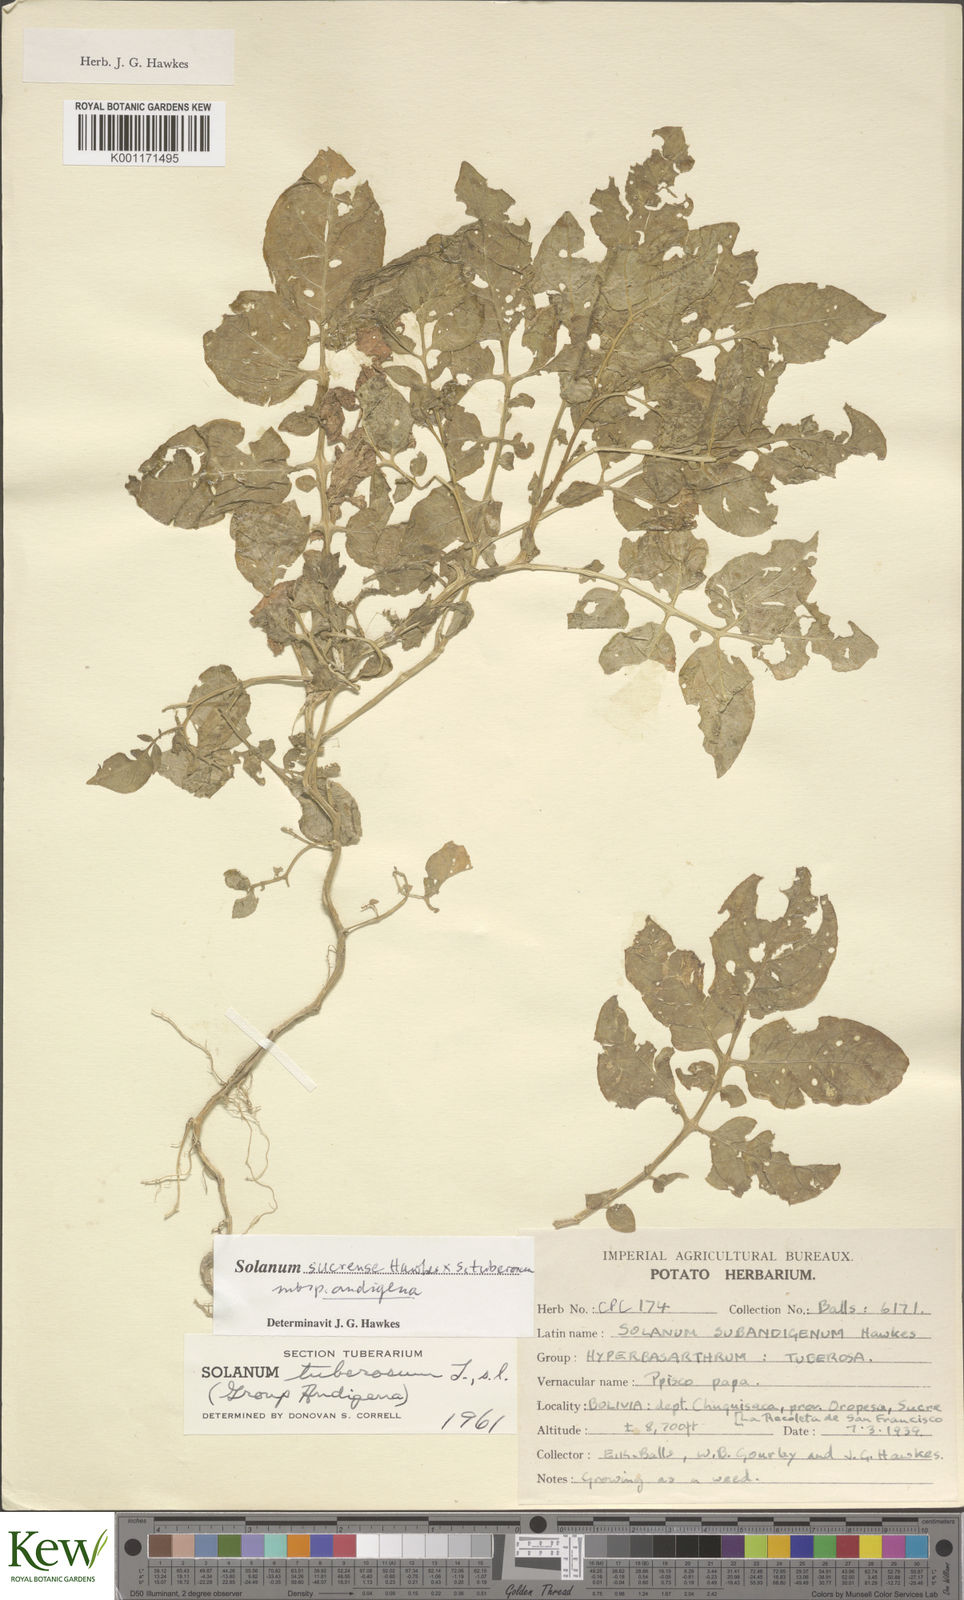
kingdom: Plantae
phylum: Tracheophyta
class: Magnoliopsida
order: Solanales
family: Solanaceae
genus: Solanum
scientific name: Solanum tuberosum
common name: Potato
